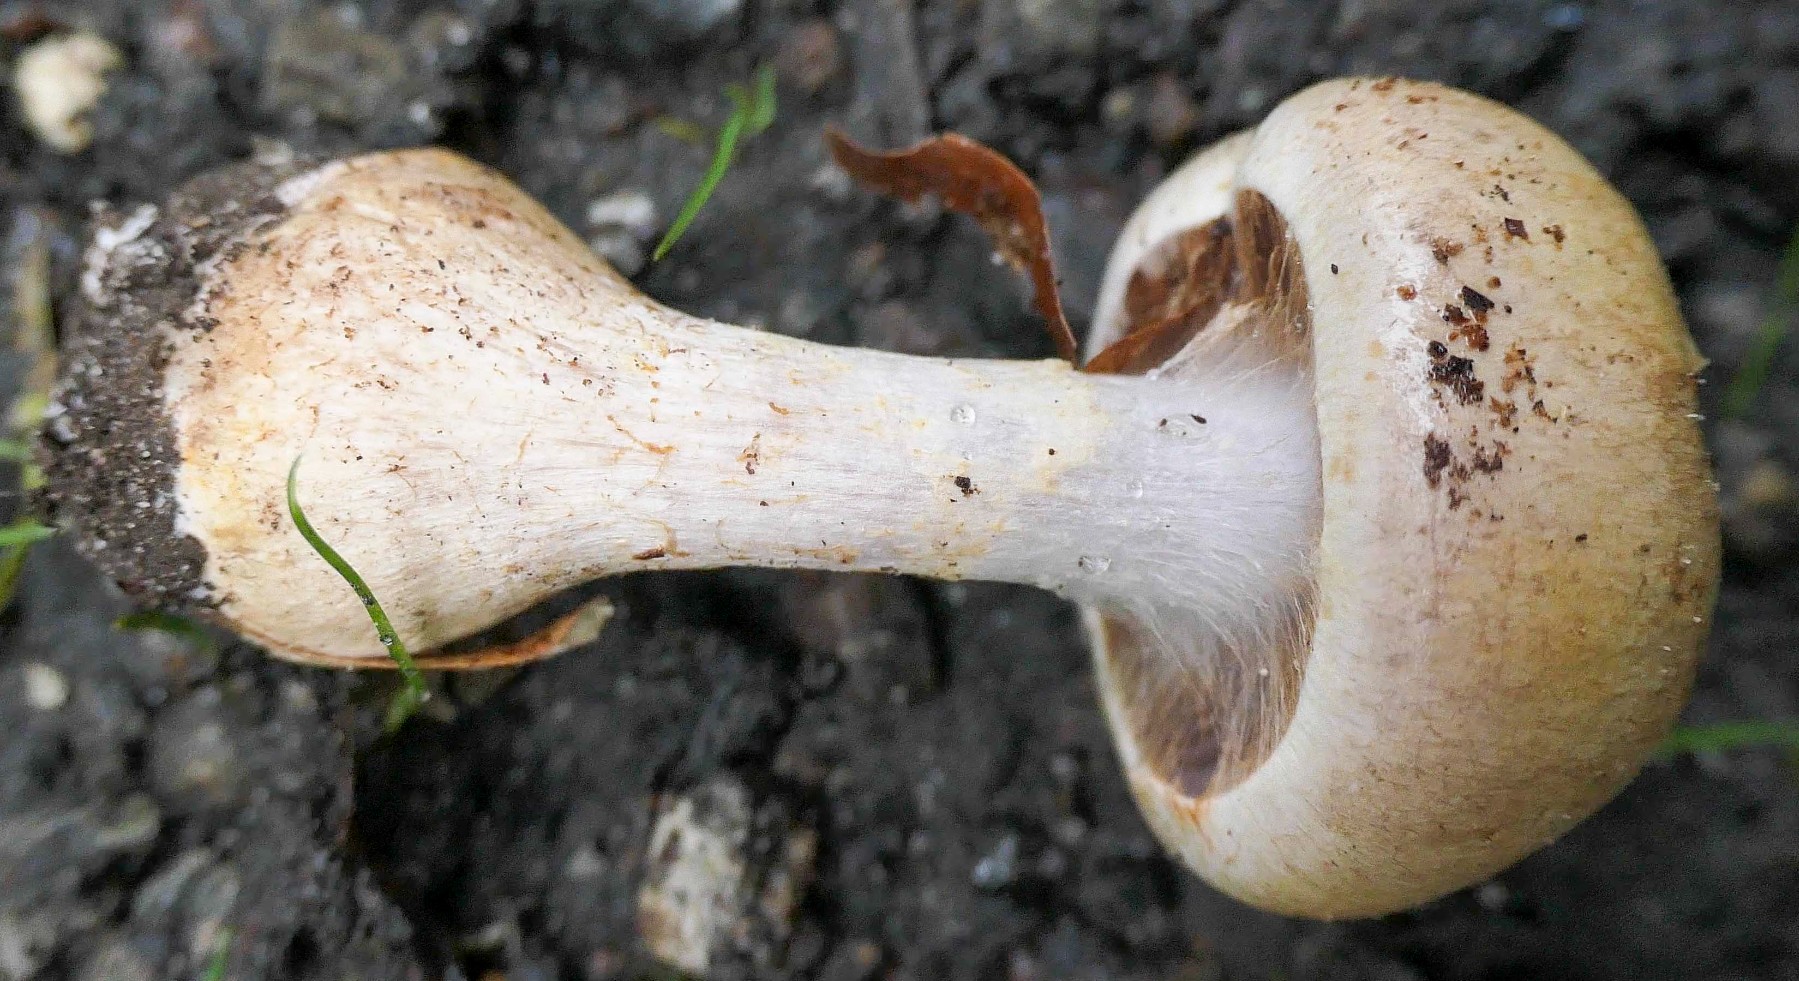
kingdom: Fungi
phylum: Basidiomycota
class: Agaricomycetes
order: Agaricales
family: Cortinariaceae
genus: Cortinarius
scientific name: Cortinarius
